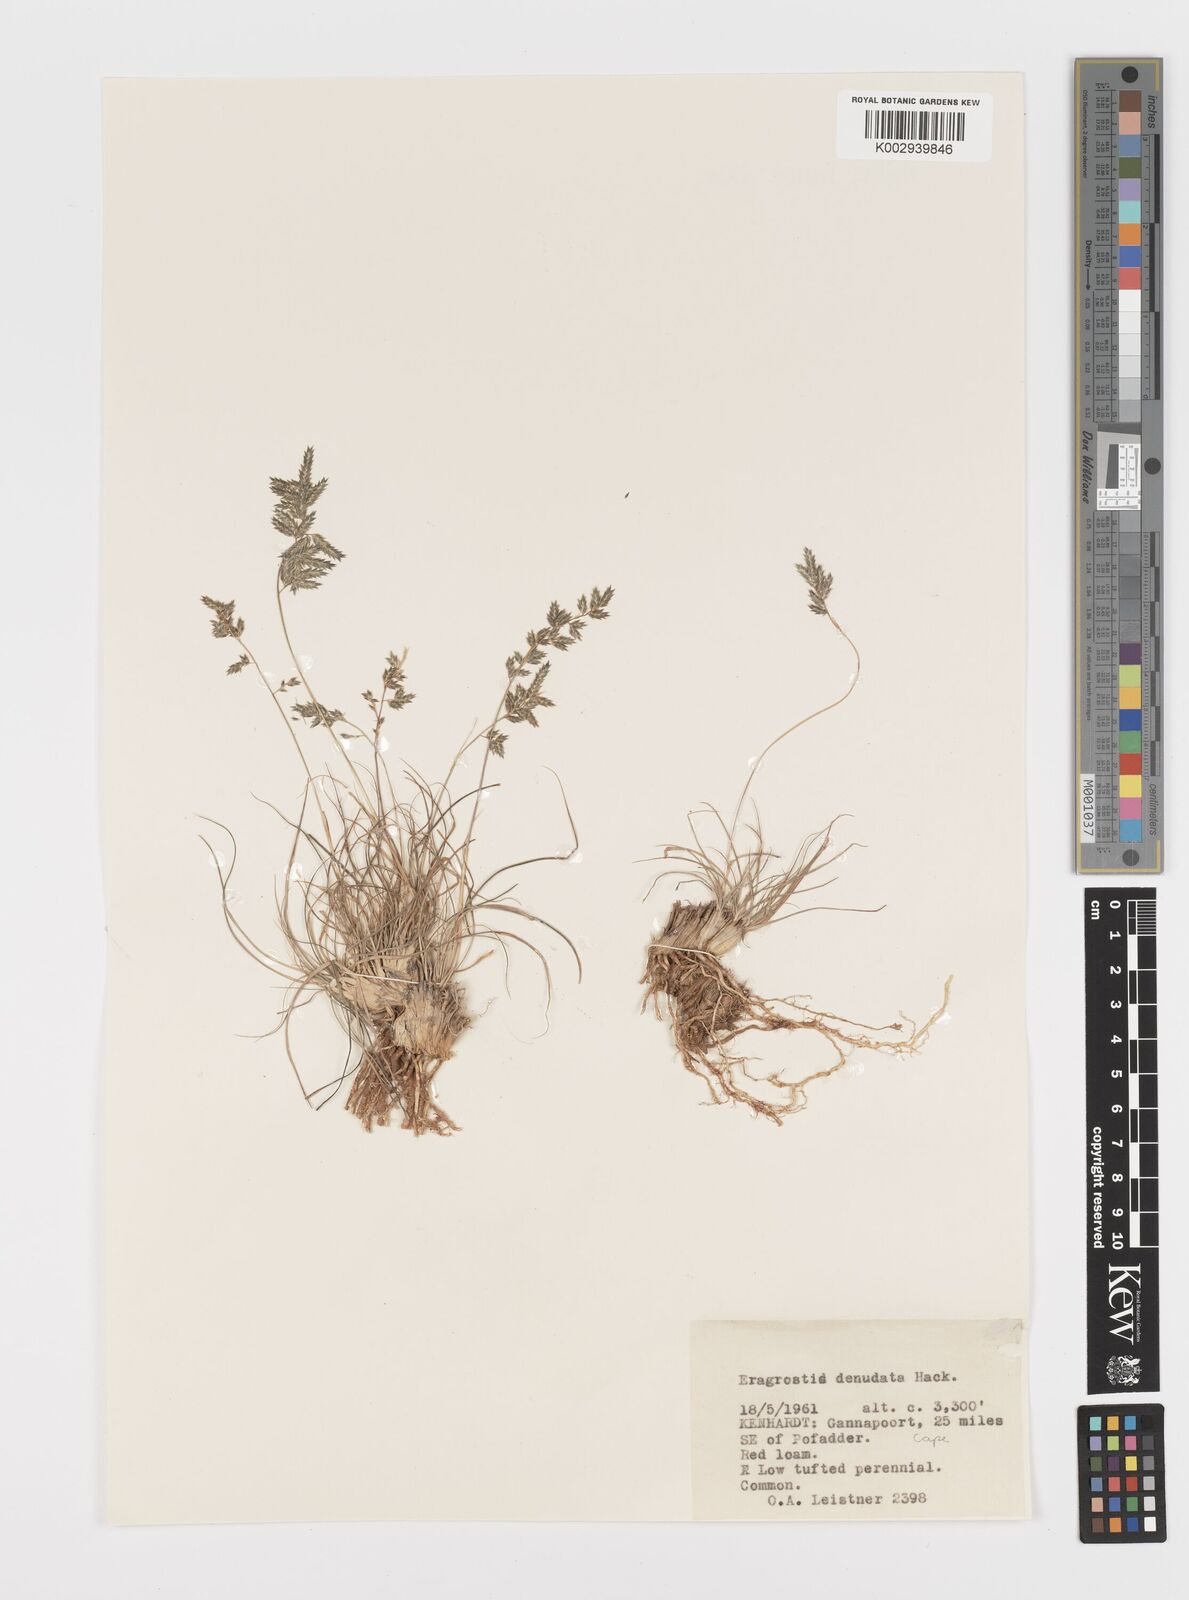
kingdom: Plantae
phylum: Tracheophyta
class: Liliopsida
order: Poales
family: Poaceae
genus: Eragrostis
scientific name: Eragrostis nindensis
